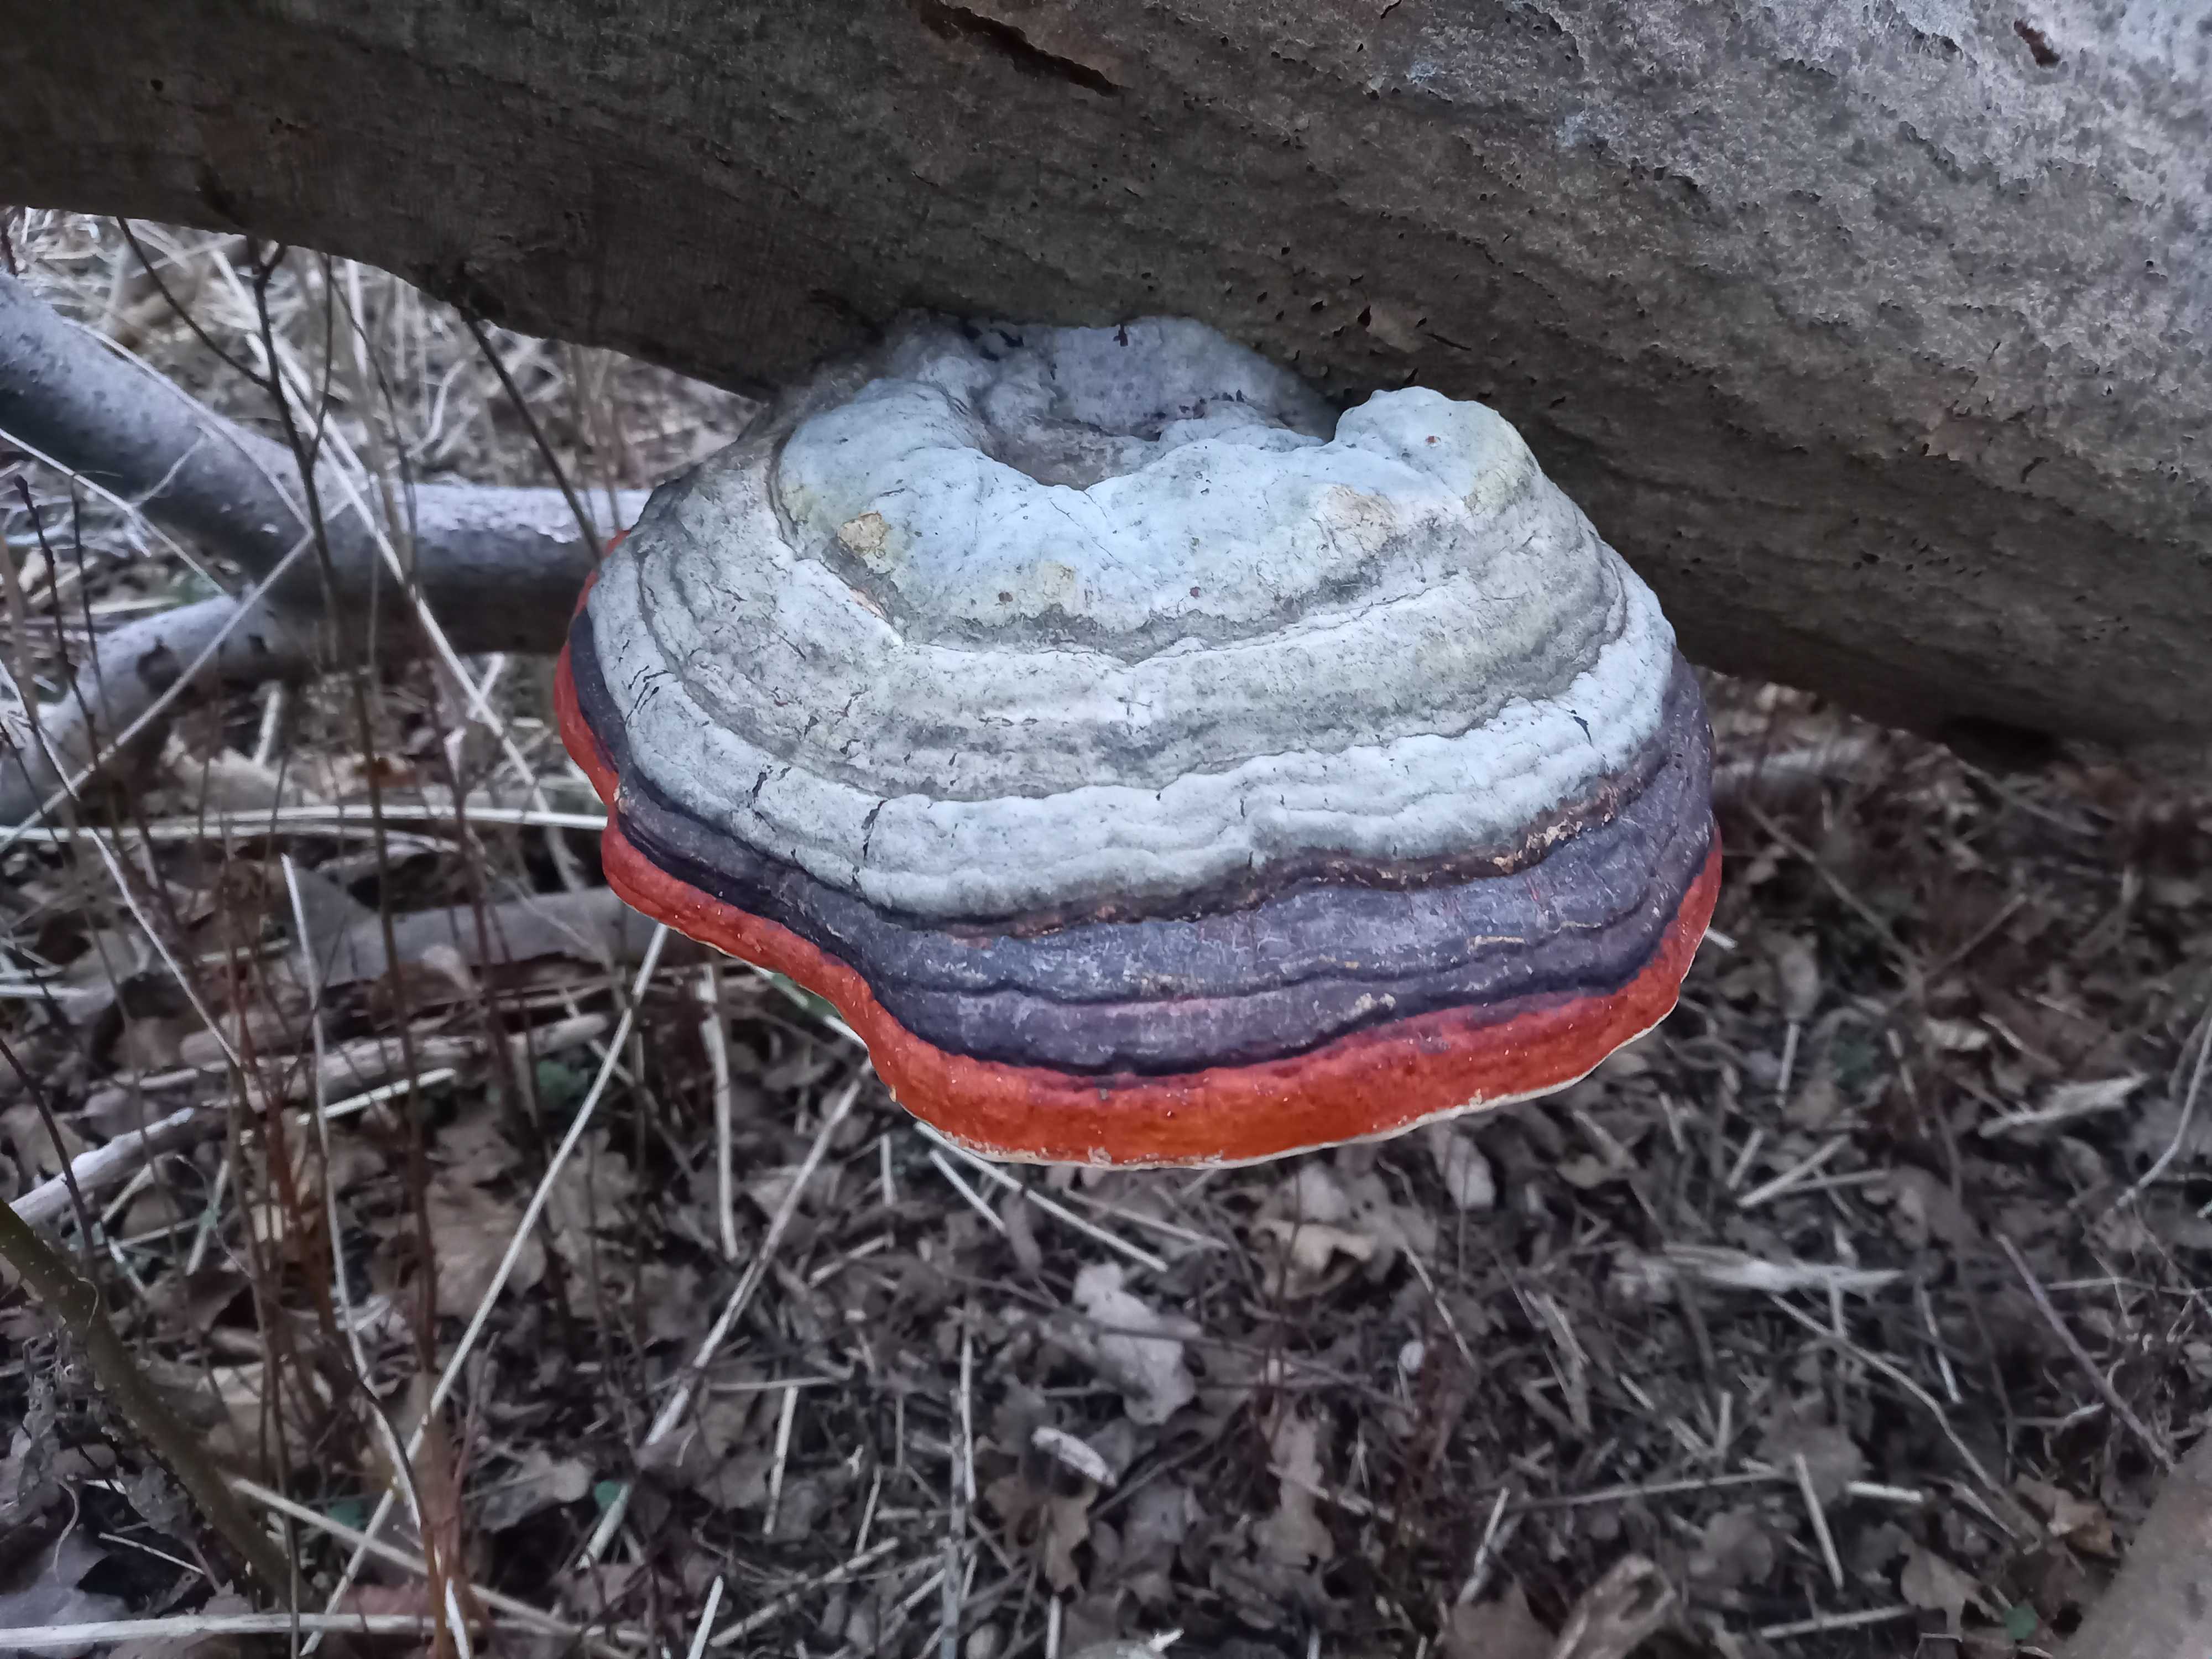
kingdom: Fungi
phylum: Basidiomycota
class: Agaricomycetes
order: Polyporales
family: Fomitopsidaceae
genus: Fomitopsis
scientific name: Fomitopsis pinicola
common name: randbæltet hovporesvamp
